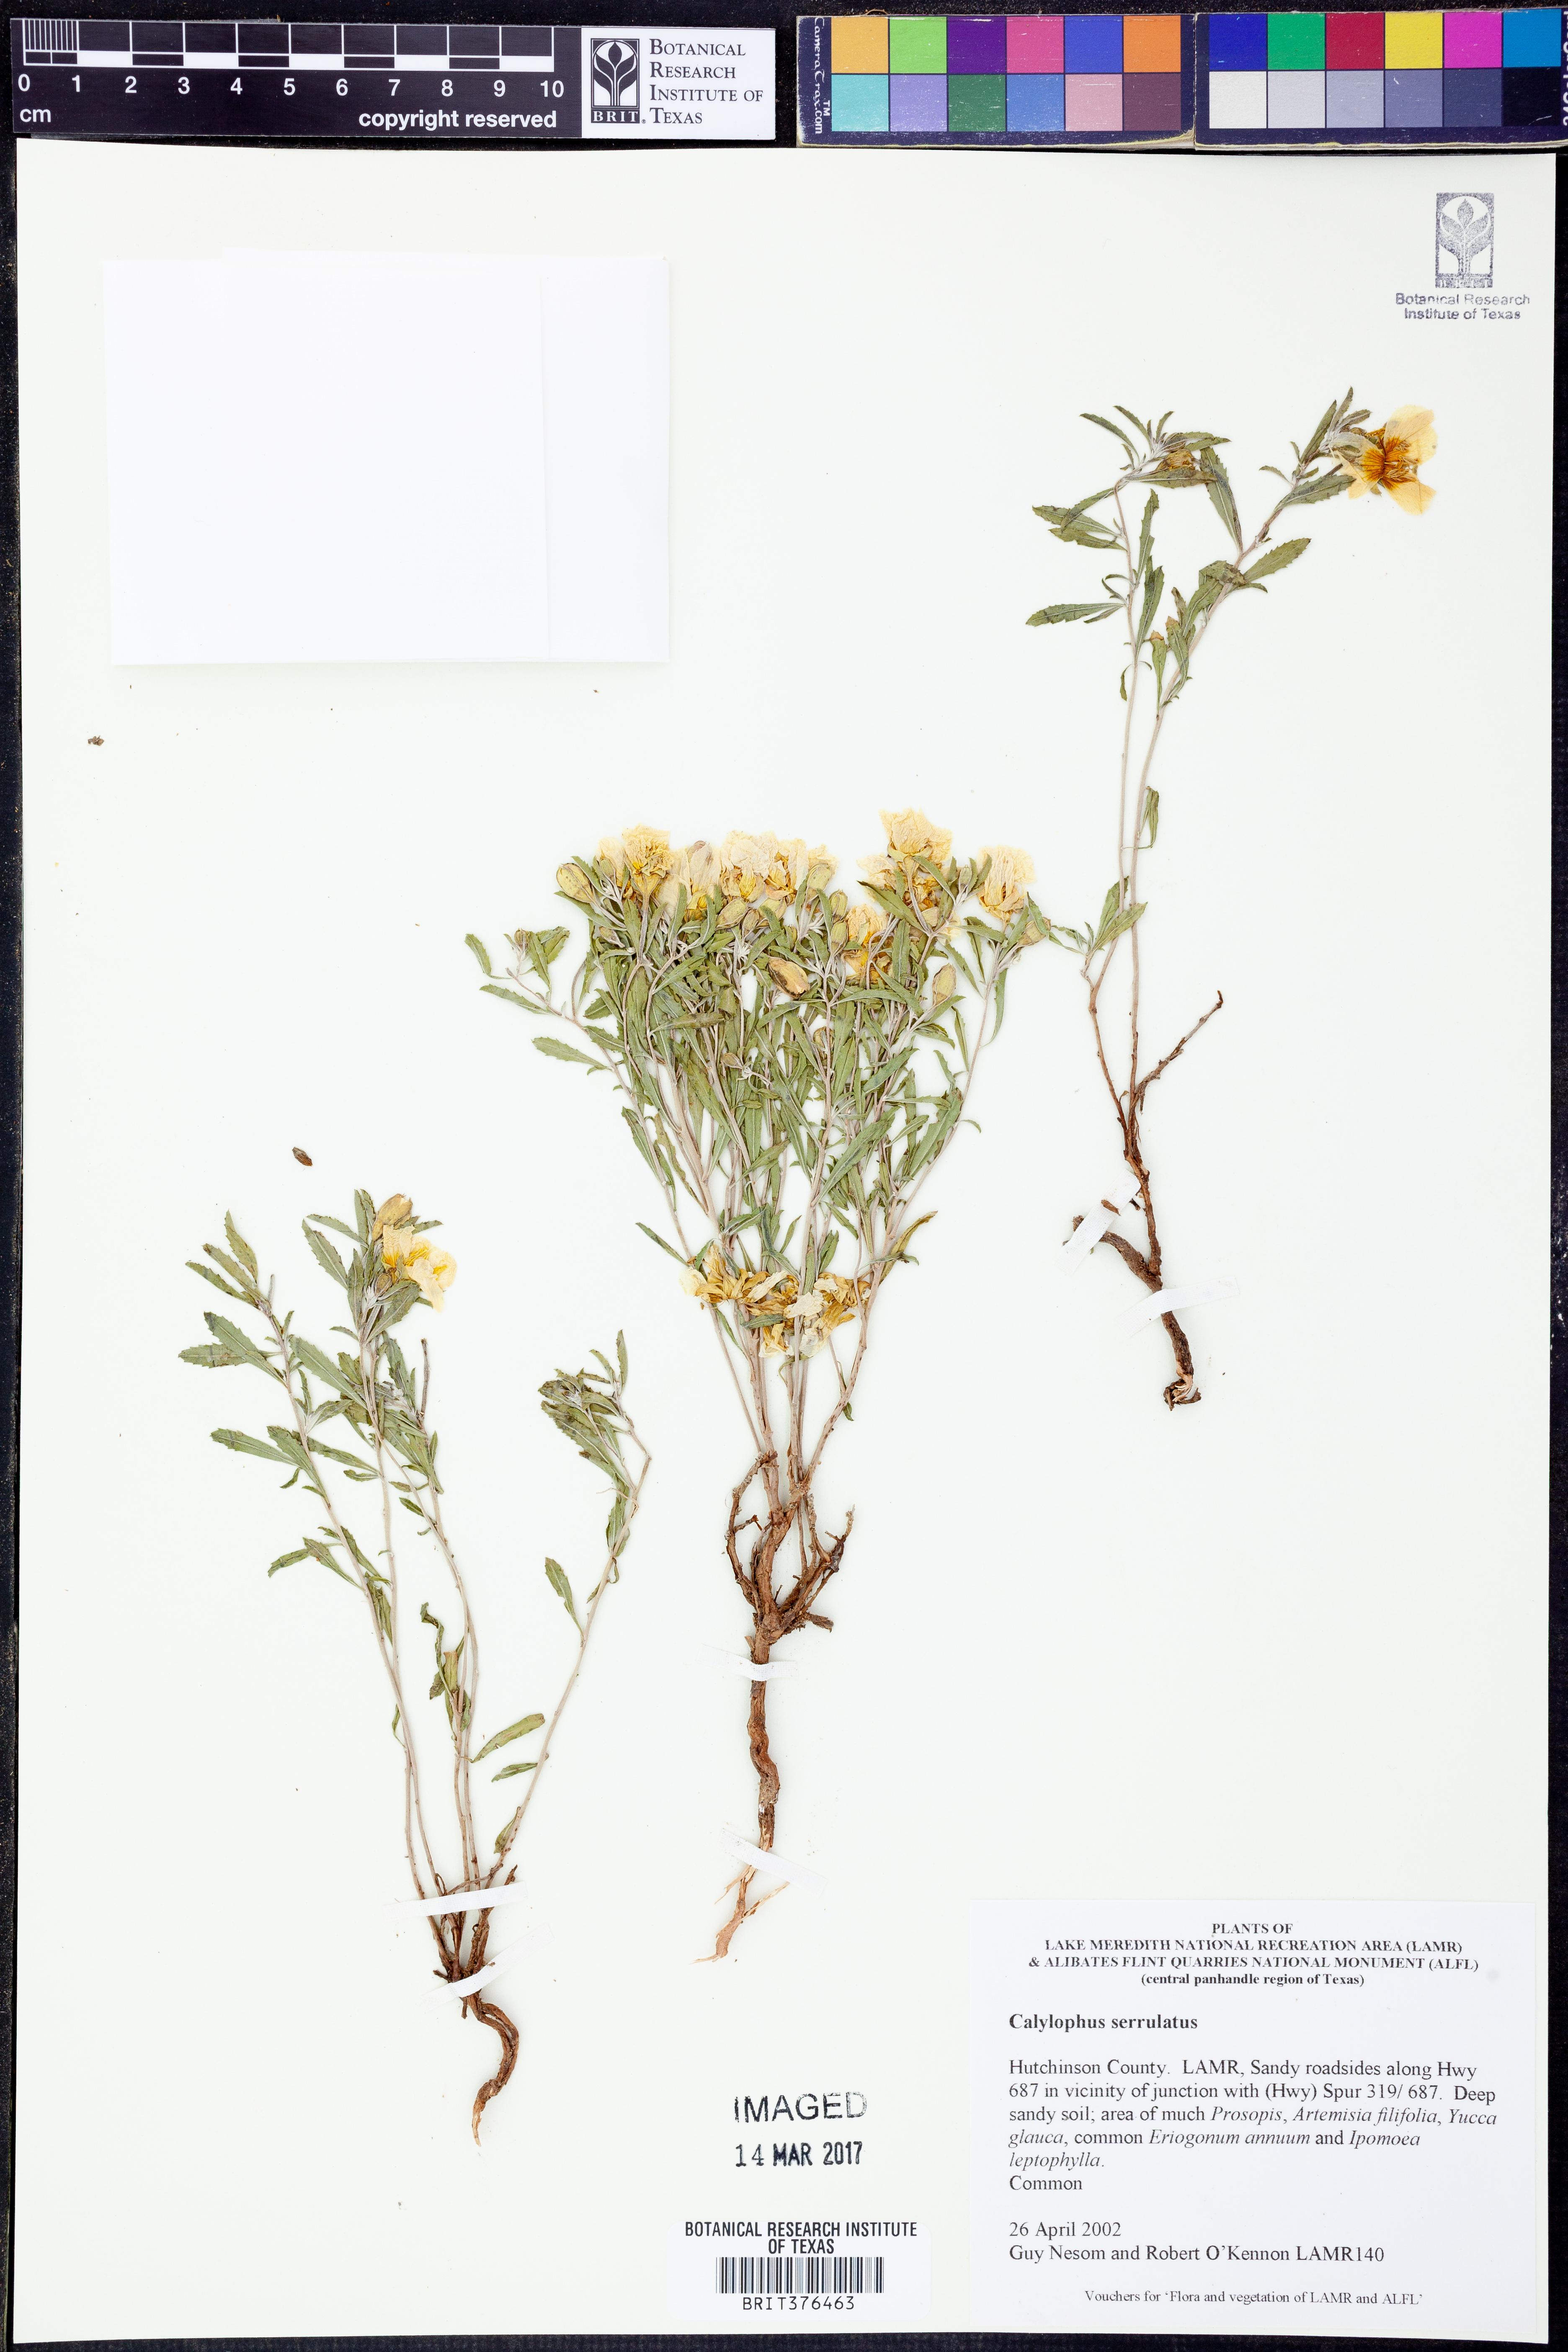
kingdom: Plantae
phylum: Tracheophyta
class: Magnoliopsida
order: Myrtales
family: Onagraceae
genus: Oenothera
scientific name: Oenothera serrulata
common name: Half-shrub calylophus
